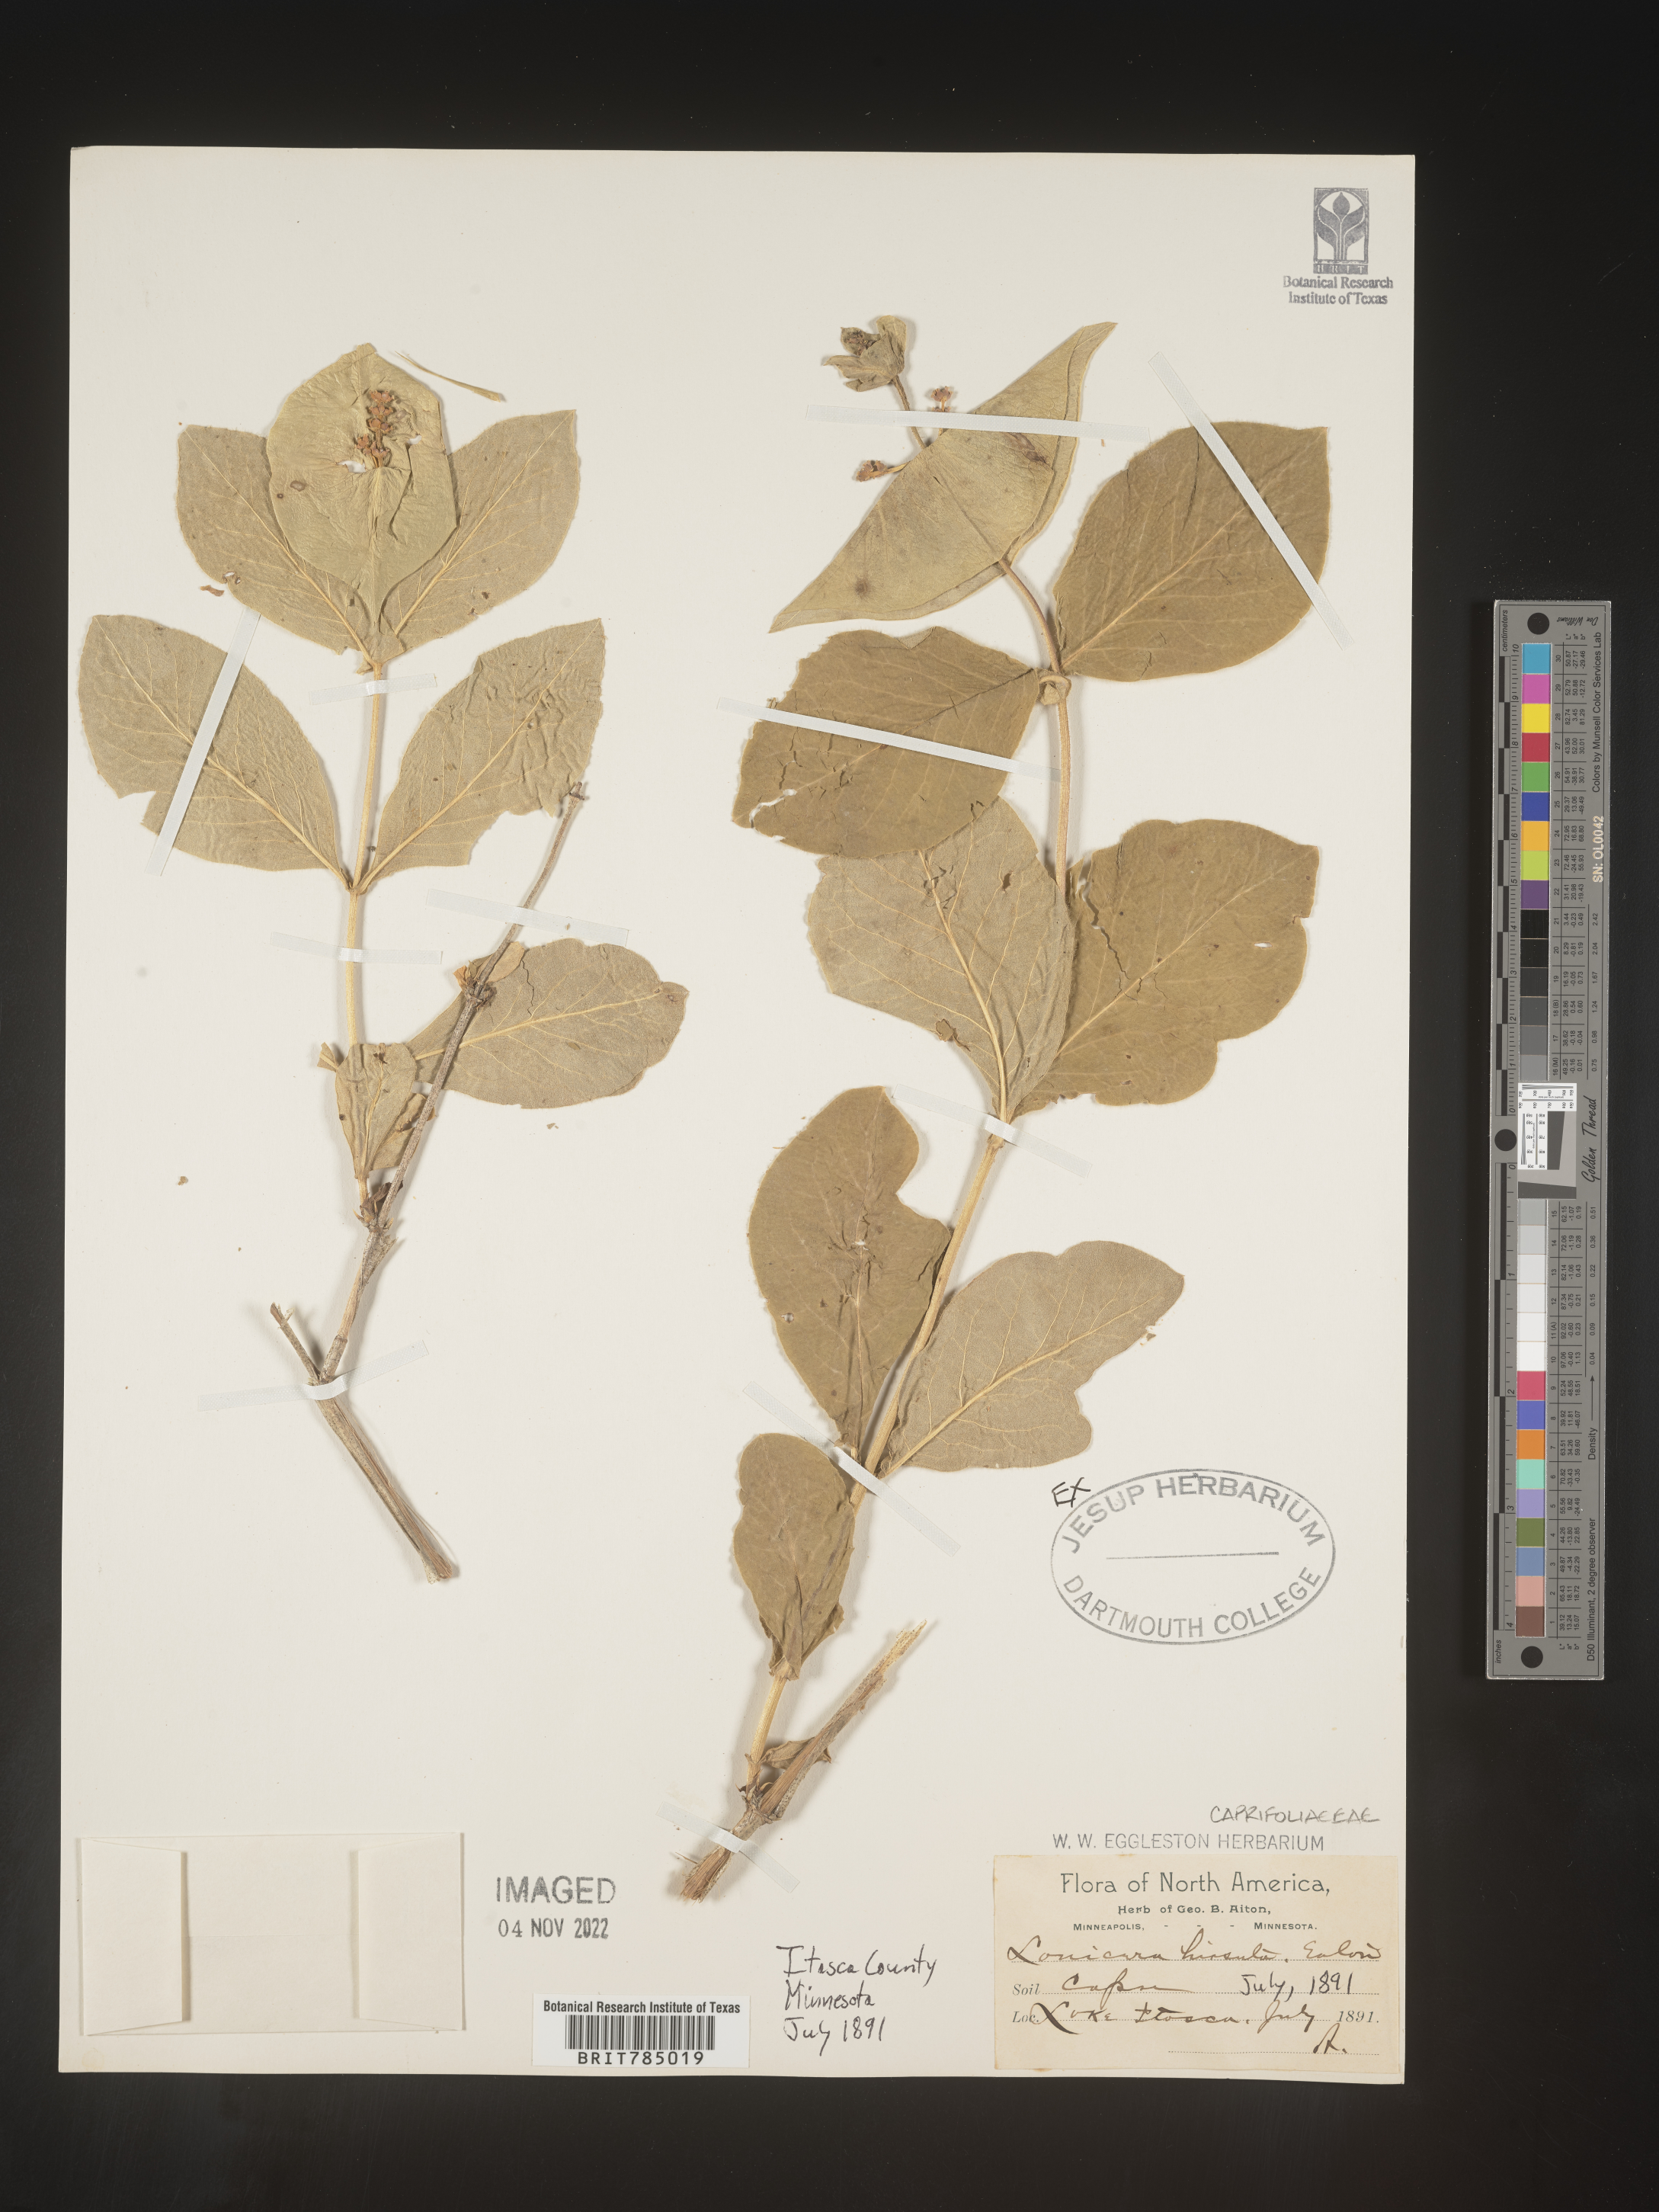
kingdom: Plantae
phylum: Tracheophyta
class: Magnoliopsida
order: Dipsacales
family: Caprifoliaceae
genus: Lonicera
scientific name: Lonicera
